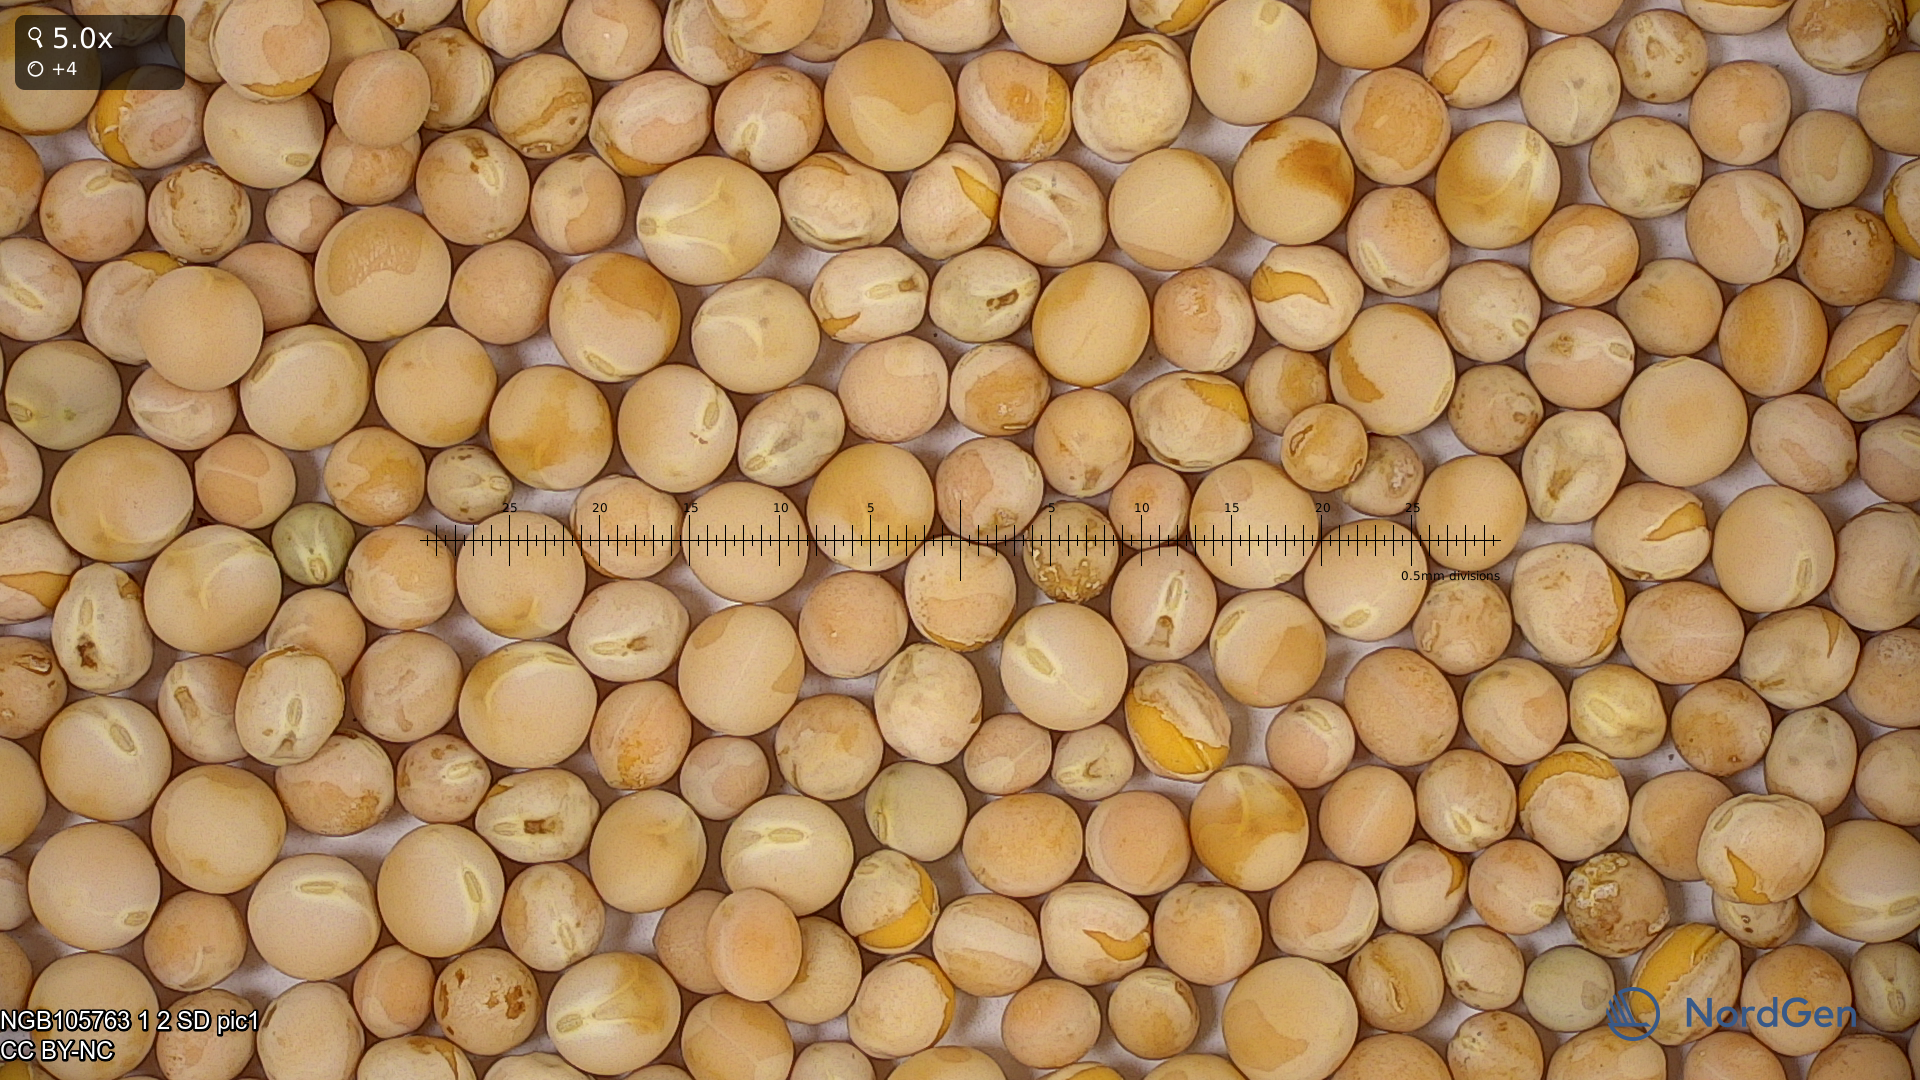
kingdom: Plantae
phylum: Tracheophyta
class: Magnoliopsida
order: Fabales
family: Fabaceae
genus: Lathyrus
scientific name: Lathyrus oleraceus
